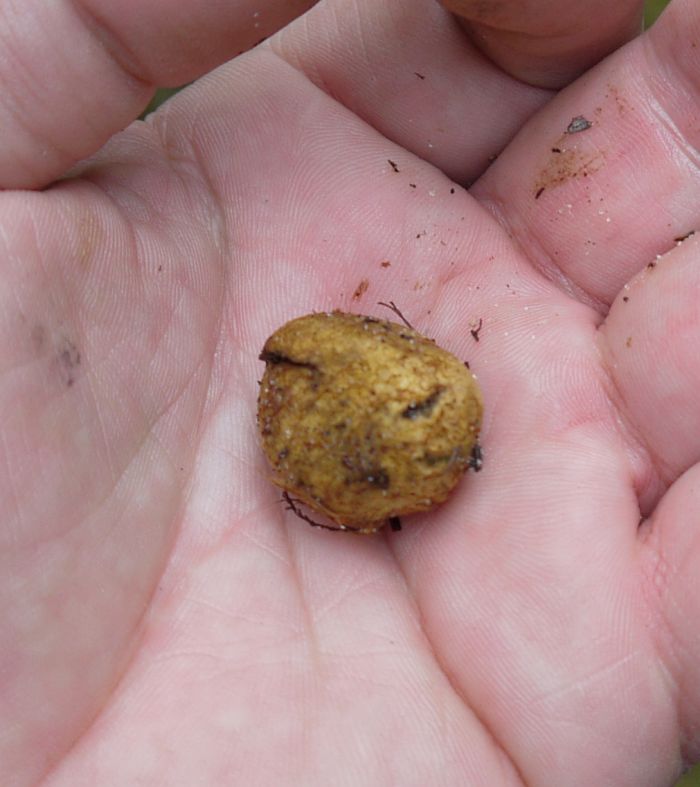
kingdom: Fungi
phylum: Basidiomycota
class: Agaricomycetes
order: Boletales
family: Rhizopogonaceae
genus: Rhizopogon
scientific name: Rhizopogon obtextus
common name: gul skægtrøffel
